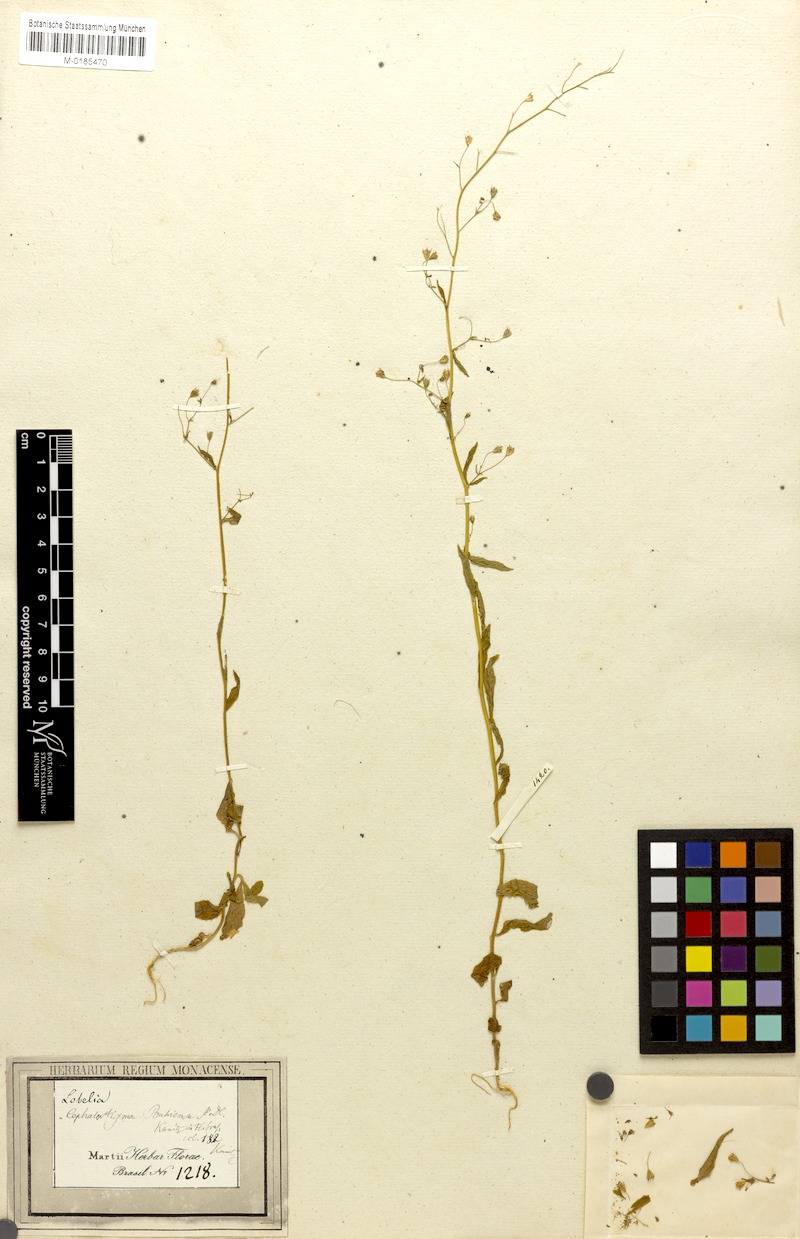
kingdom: Plantae
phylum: Tracheophyta
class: Magnoliopsida
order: Asterales
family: Campanulaceae
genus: Wahlenbergia
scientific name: Wahlenbergia perrottetii
